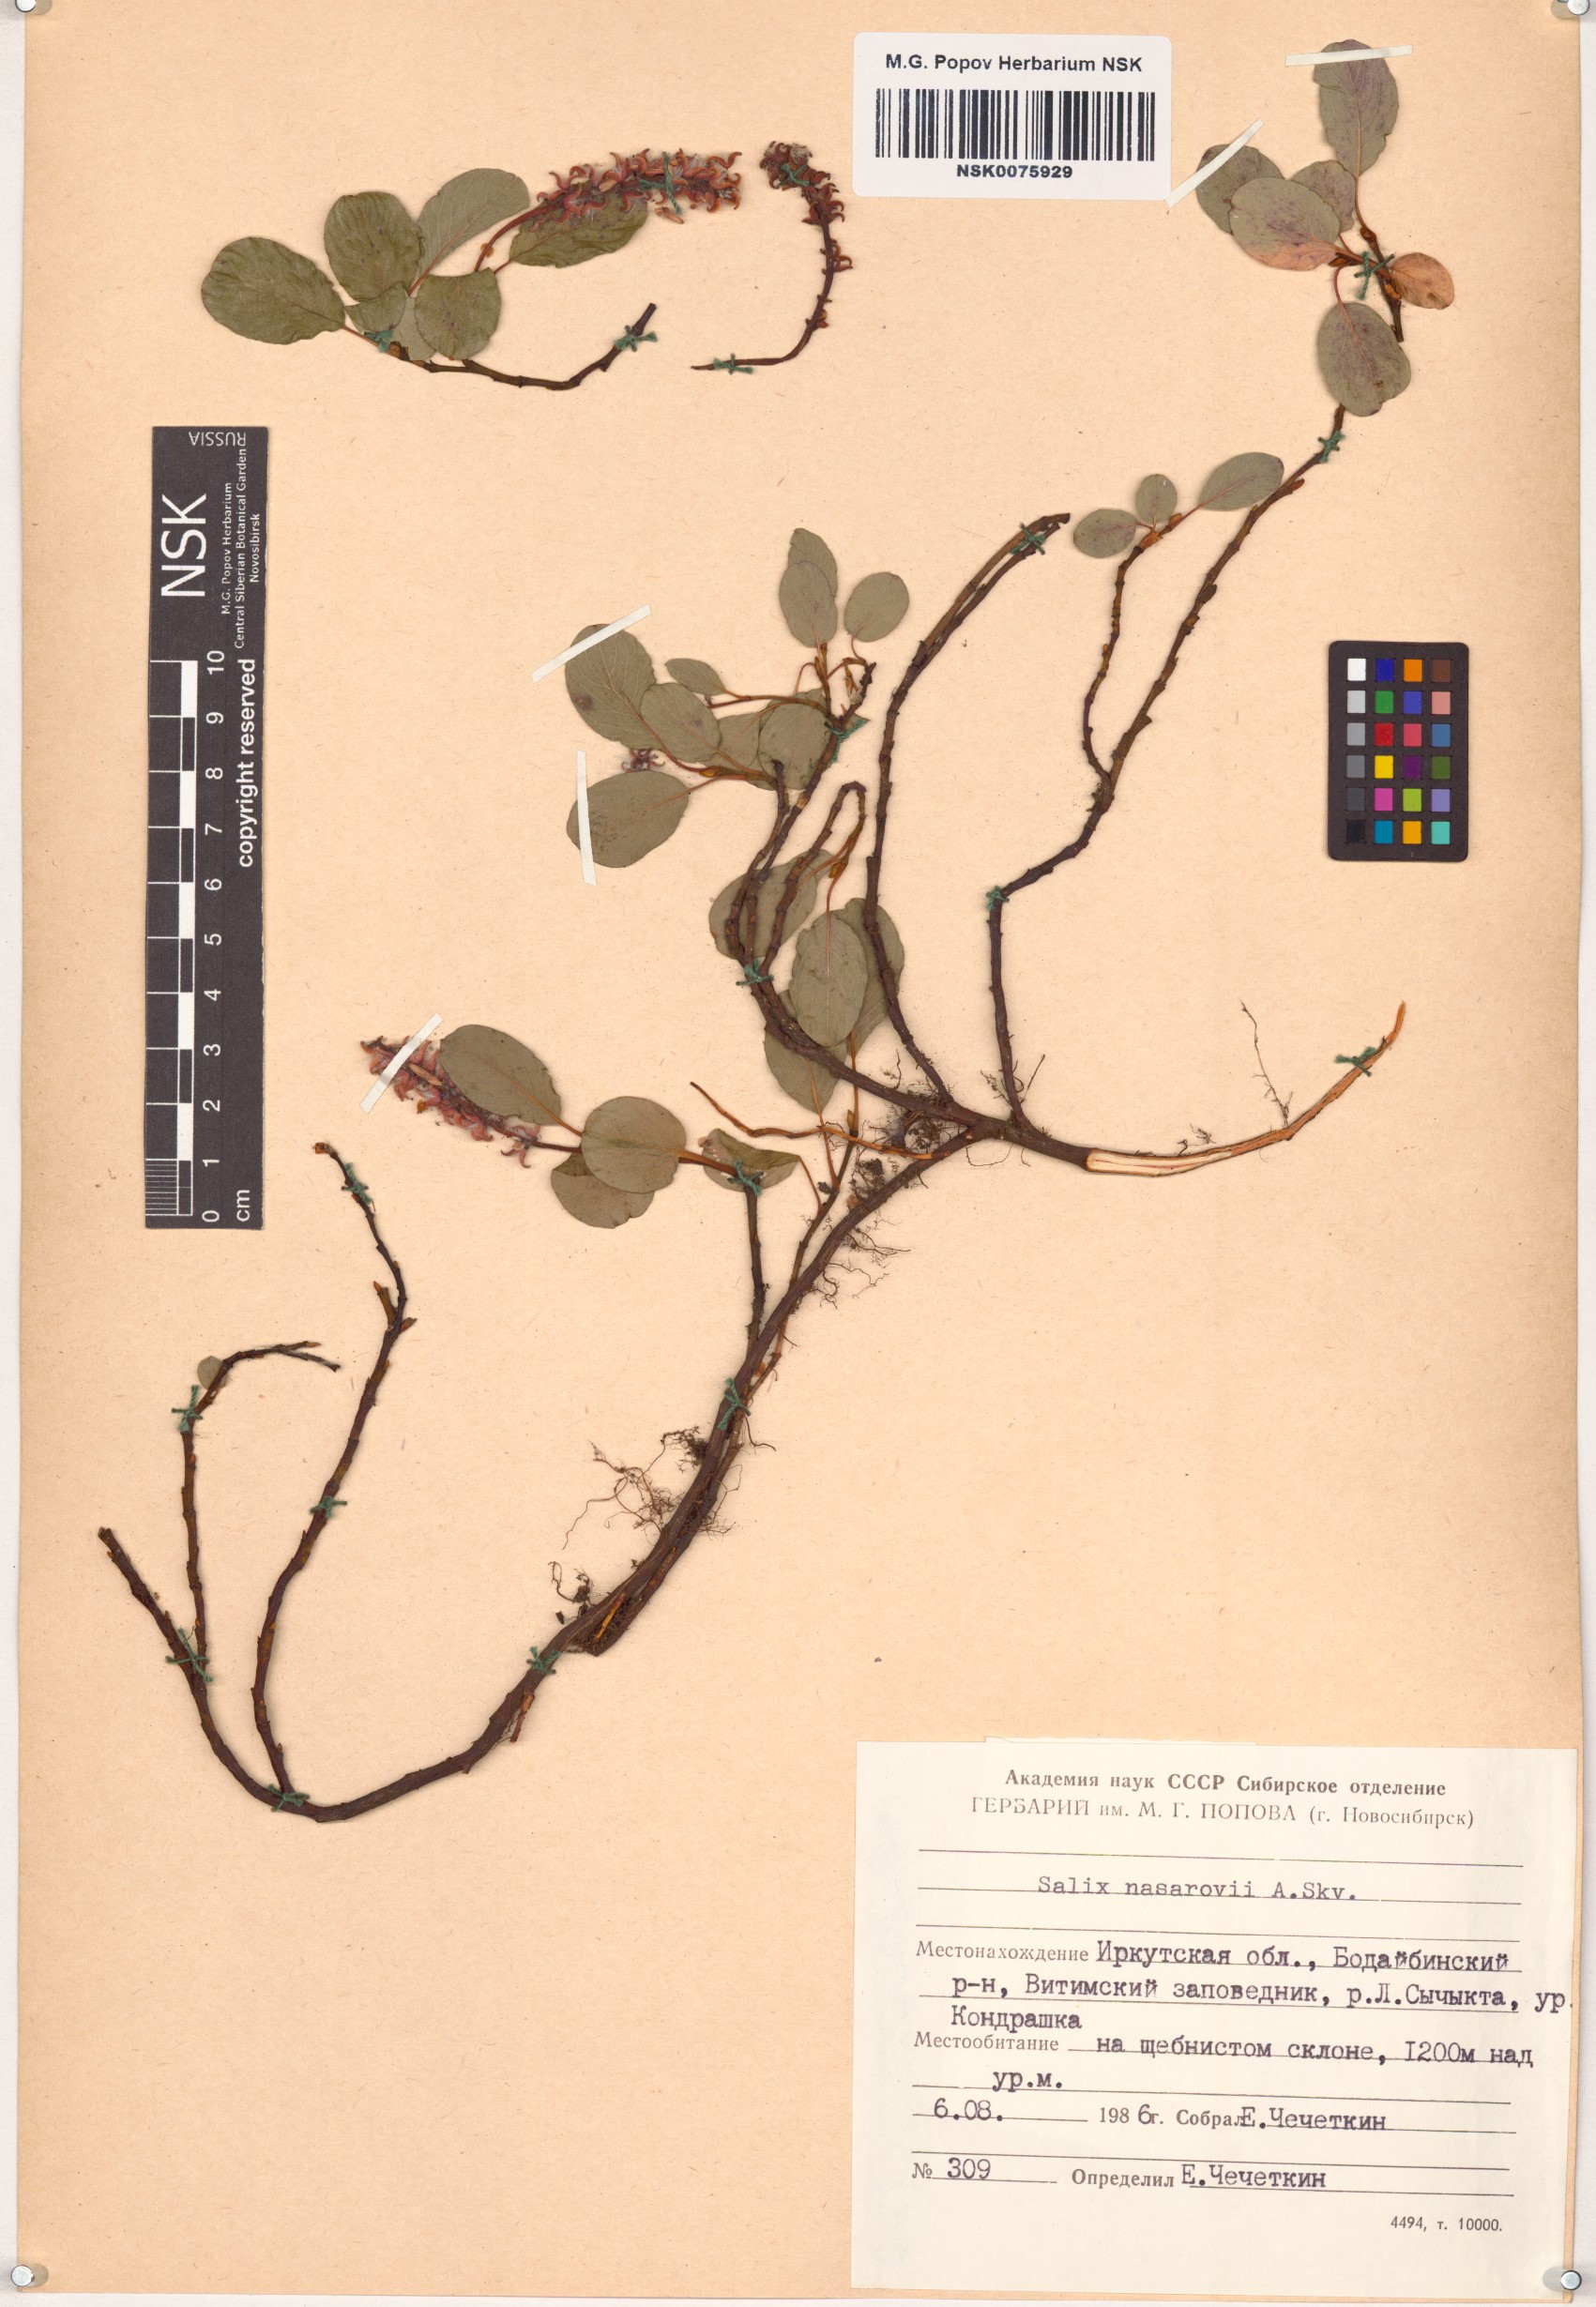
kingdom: Plantae
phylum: Tracheophyta
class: Magnoliopsida
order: Malpighiales
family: Salicaceae
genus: Salix
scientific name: Salix nasarovii
